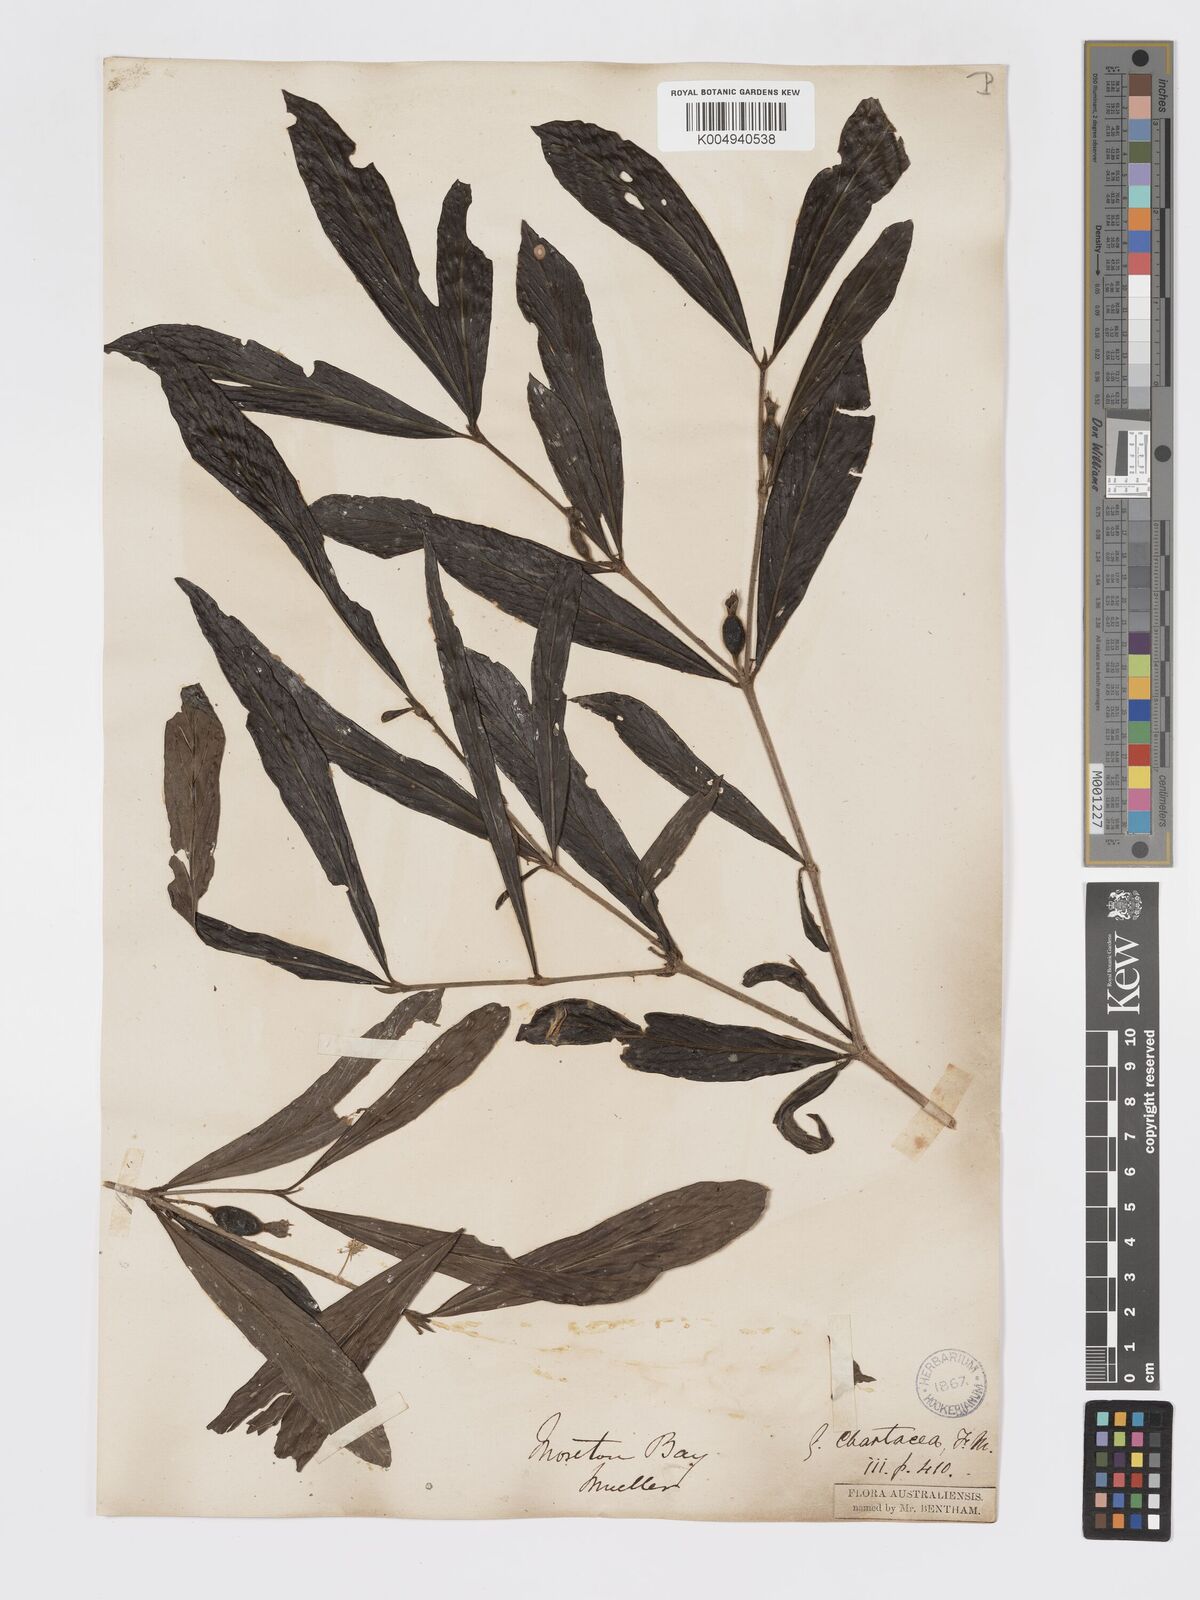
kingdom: Plantae
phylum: Tracheophyta
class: Magnoliopsida
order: Gentianales
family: Rubiaceae
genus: Atractocarpus
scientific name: Atractocarpus chartaceus
